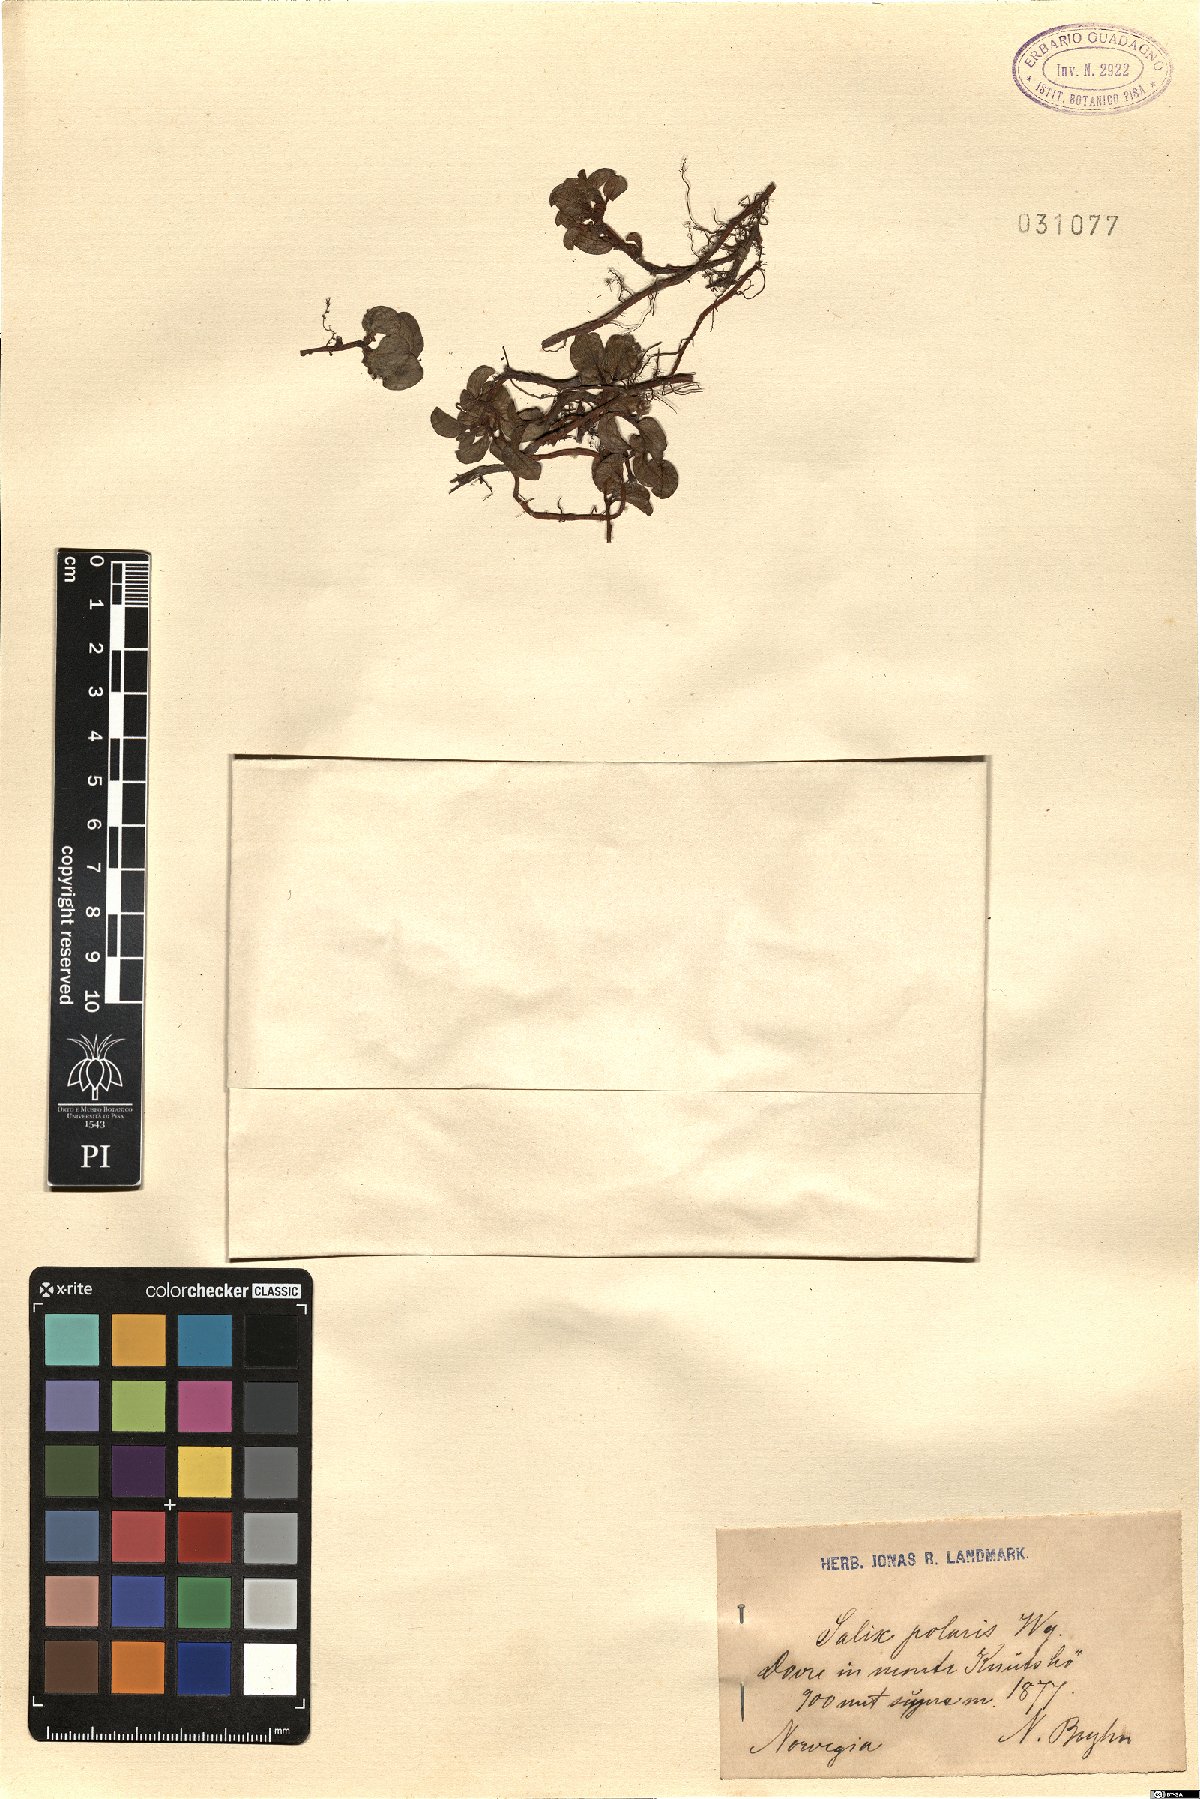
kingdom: Plantae
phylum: Tracheophyta
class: Magnoliopsida
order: Malpighiales
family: Salicaceae
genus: Salix
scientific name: Salix polaris
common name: Polar willow
